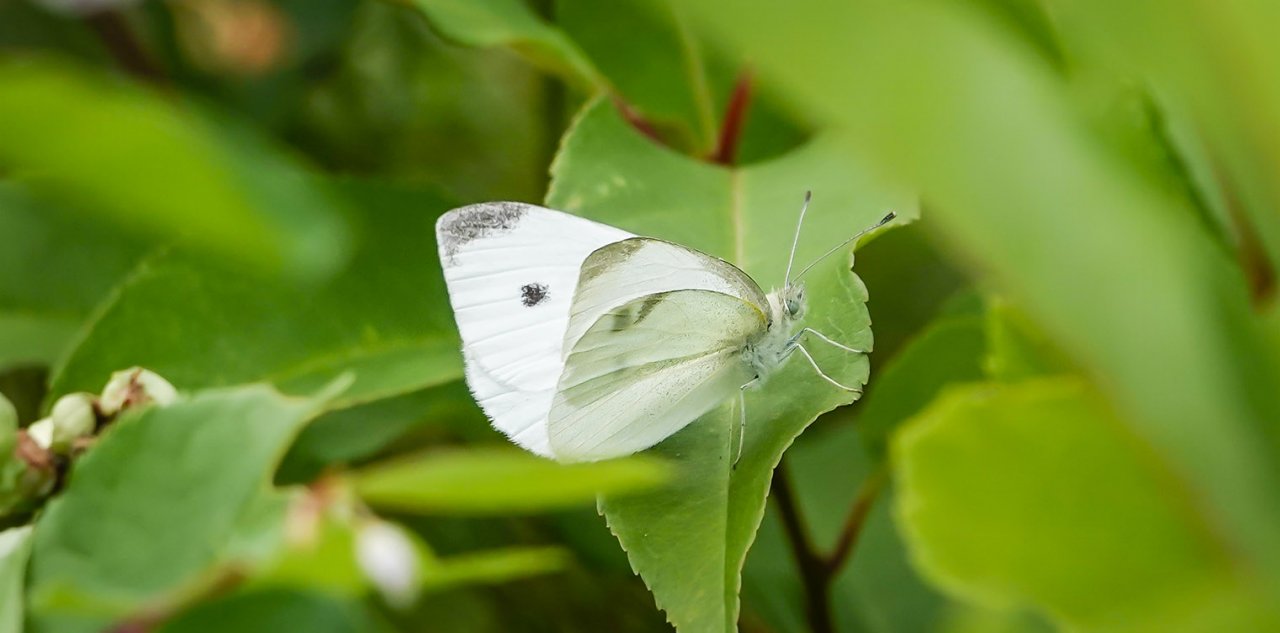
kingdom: Animalia
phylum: Arthropoda
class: Insecta
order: Lepidoptera
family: Pieridae
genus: Pieris
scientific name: Pieris rapae
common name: Cabbage White
